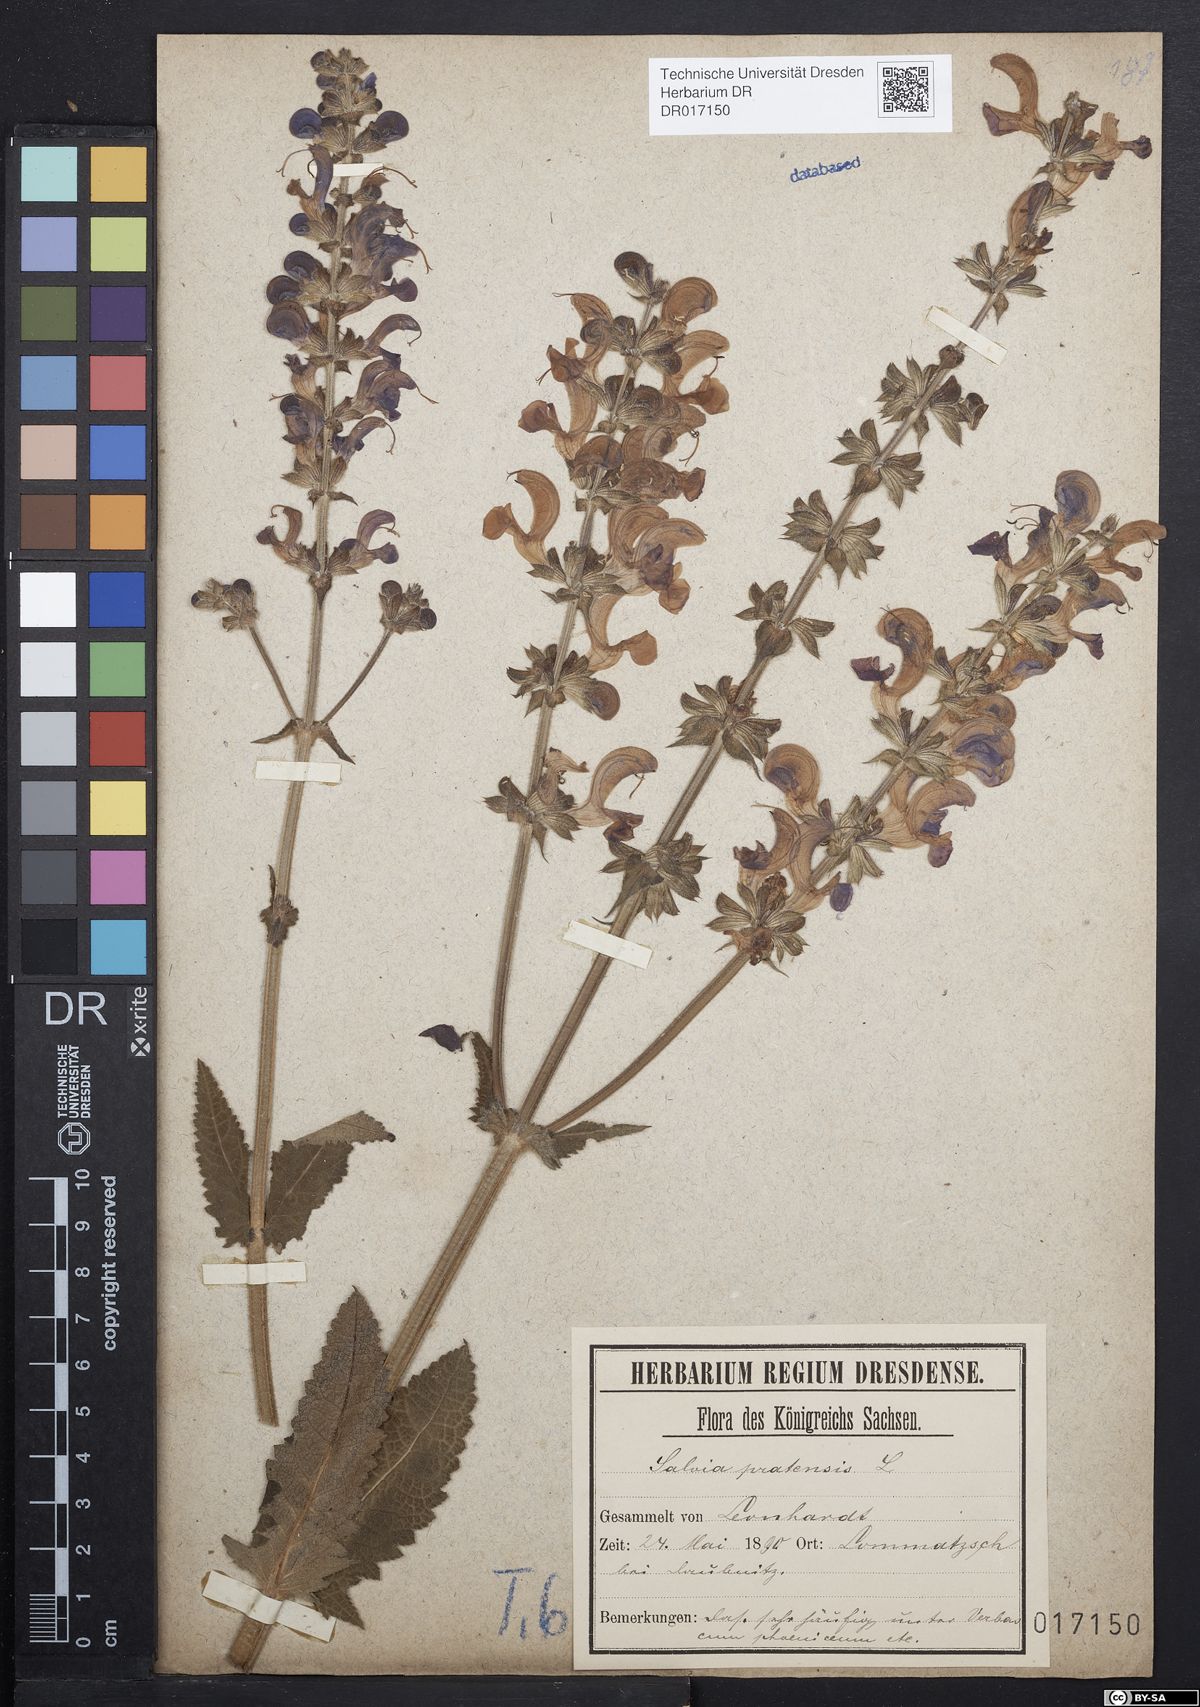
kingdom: Plantae
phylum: Tracheophyta
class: Magnoliopsida
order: Lamiales
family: Lamiaceae
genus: Salvia
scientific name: Salvia pratensis
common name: Meadow sage
